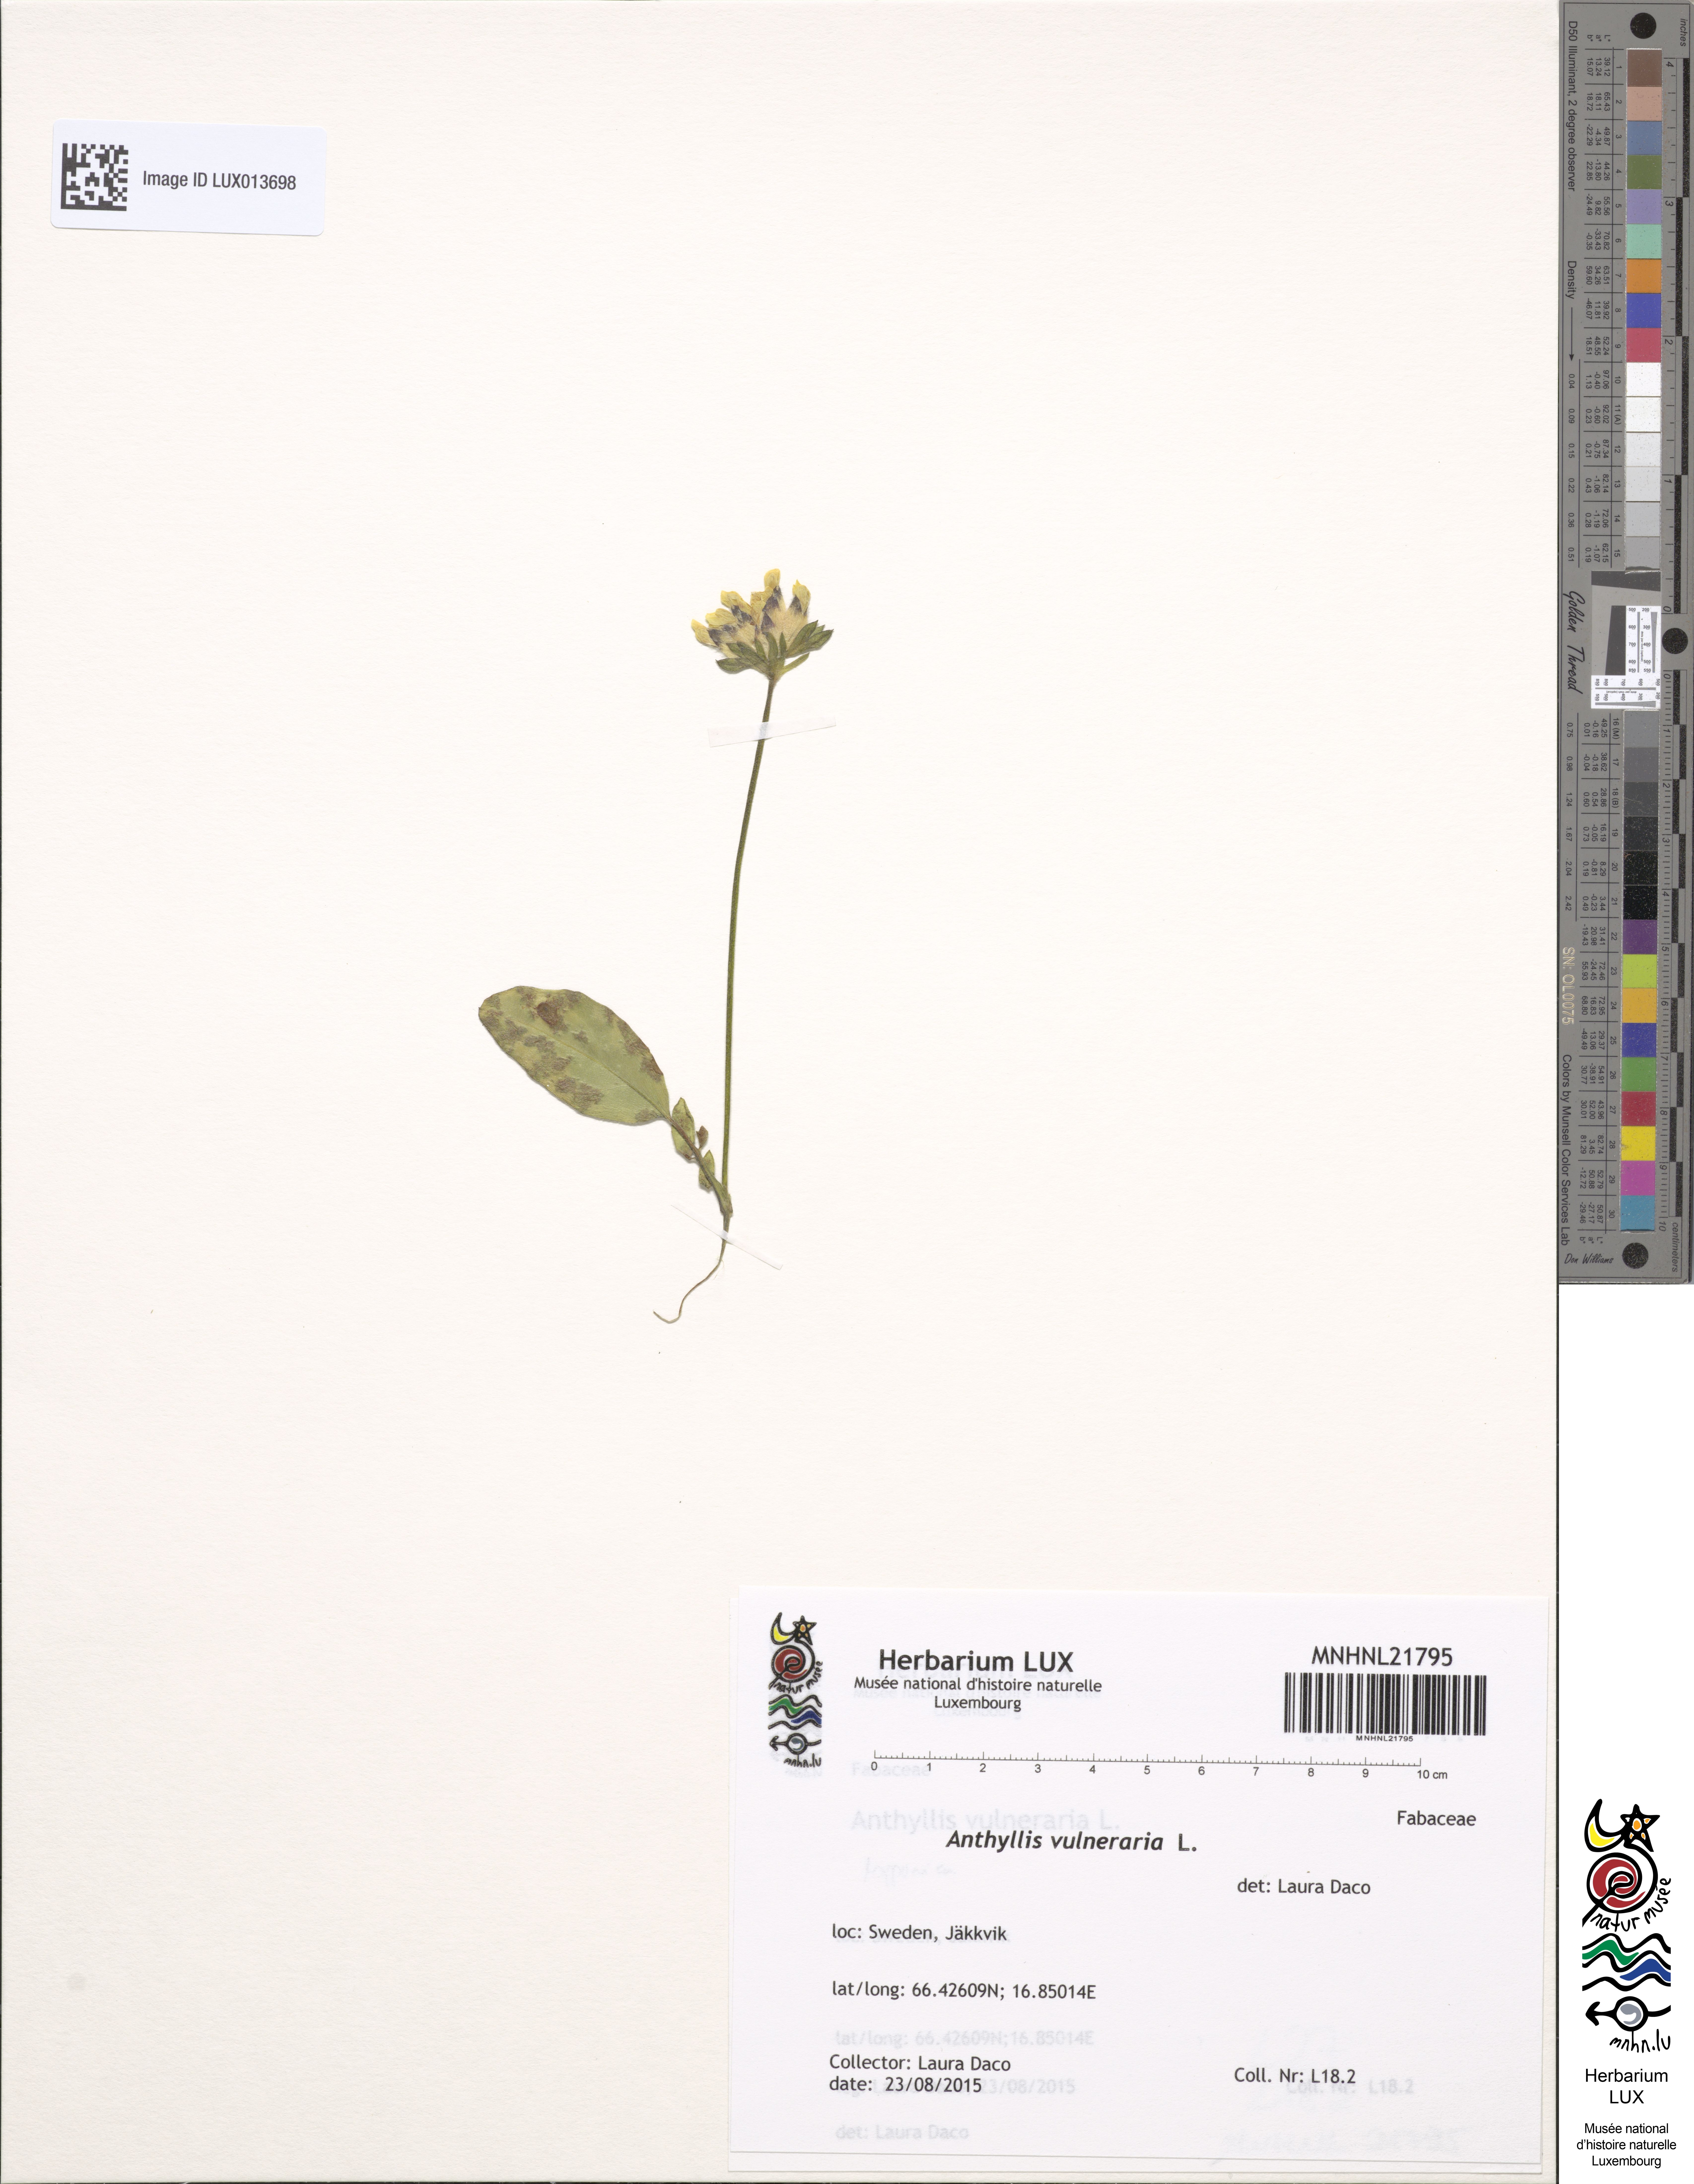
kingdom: Plantae
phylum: Tracheophyta
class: Magnoliopsida
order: Fabales
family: Fabaceae
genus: Anthyllis
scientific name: Anthyllis vulneraria
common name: Kidney vetch
